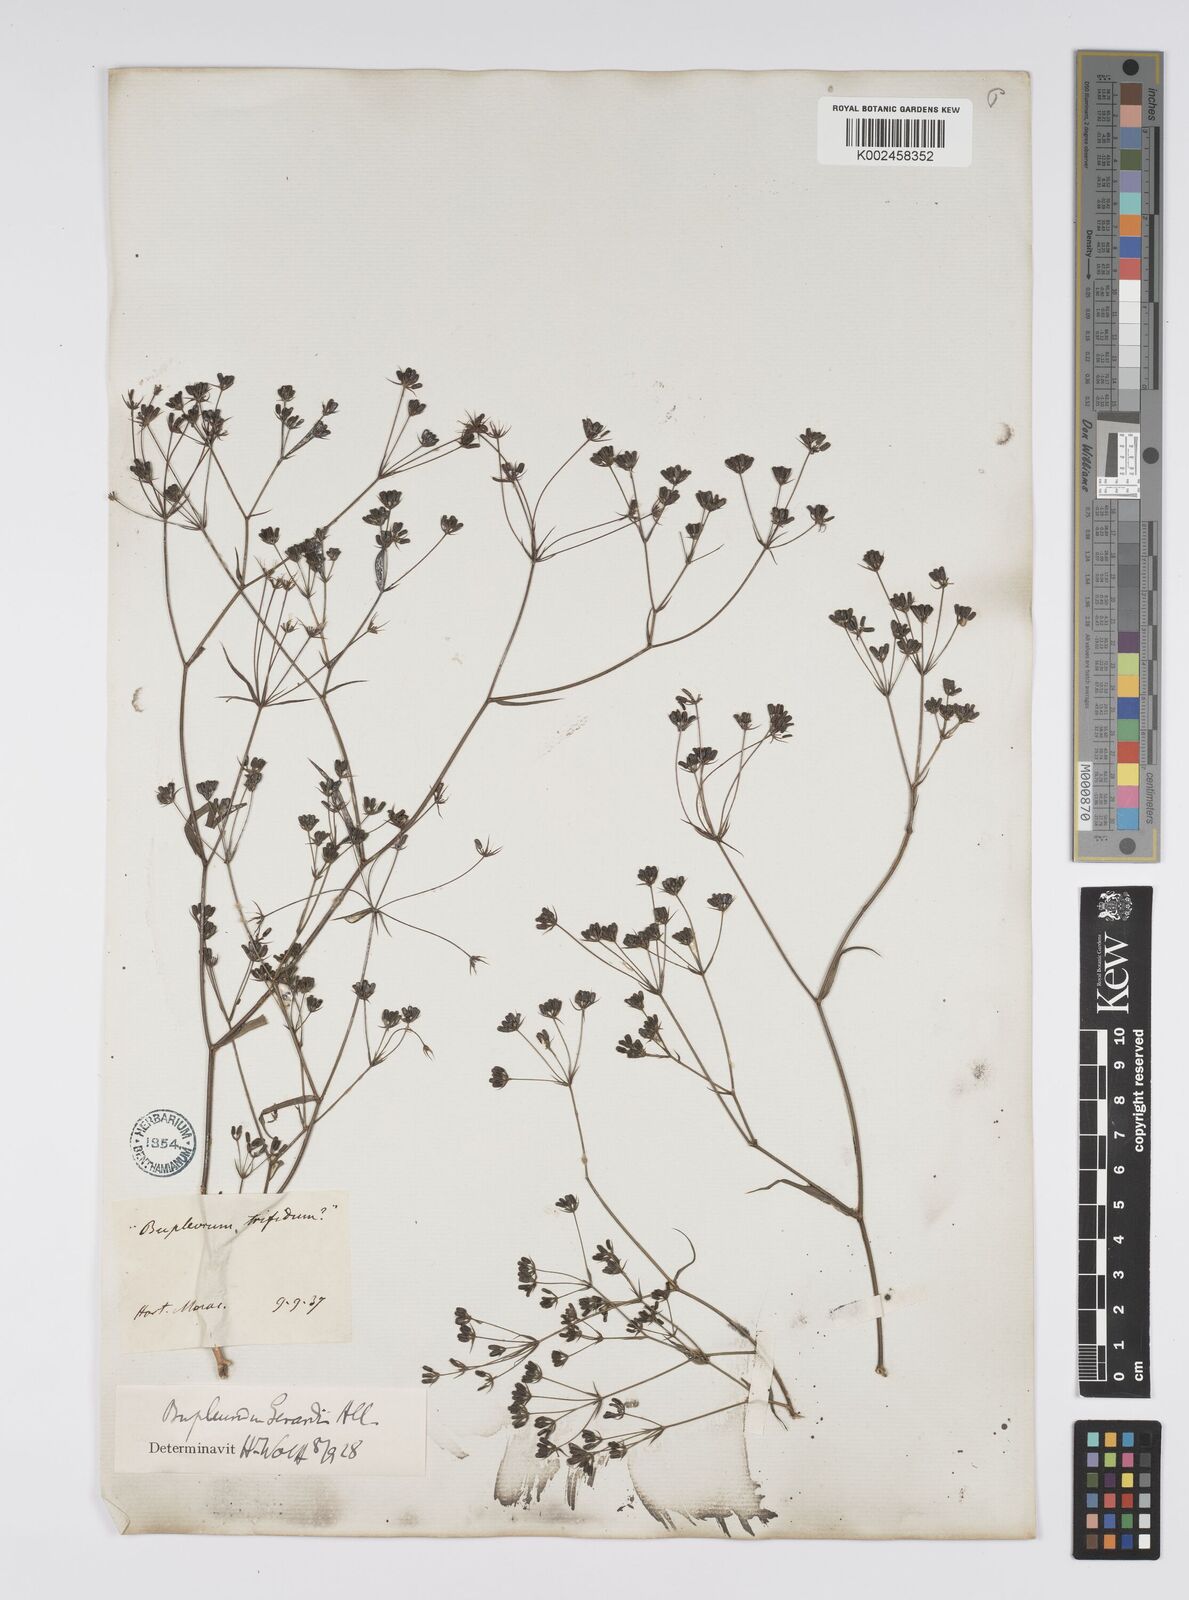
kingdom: Plantae
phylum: Tracheophyta
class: Magnoliopsida
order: Apiales
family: Apiaceae
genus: Bupleurum
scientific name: Bupleurum gerardi
